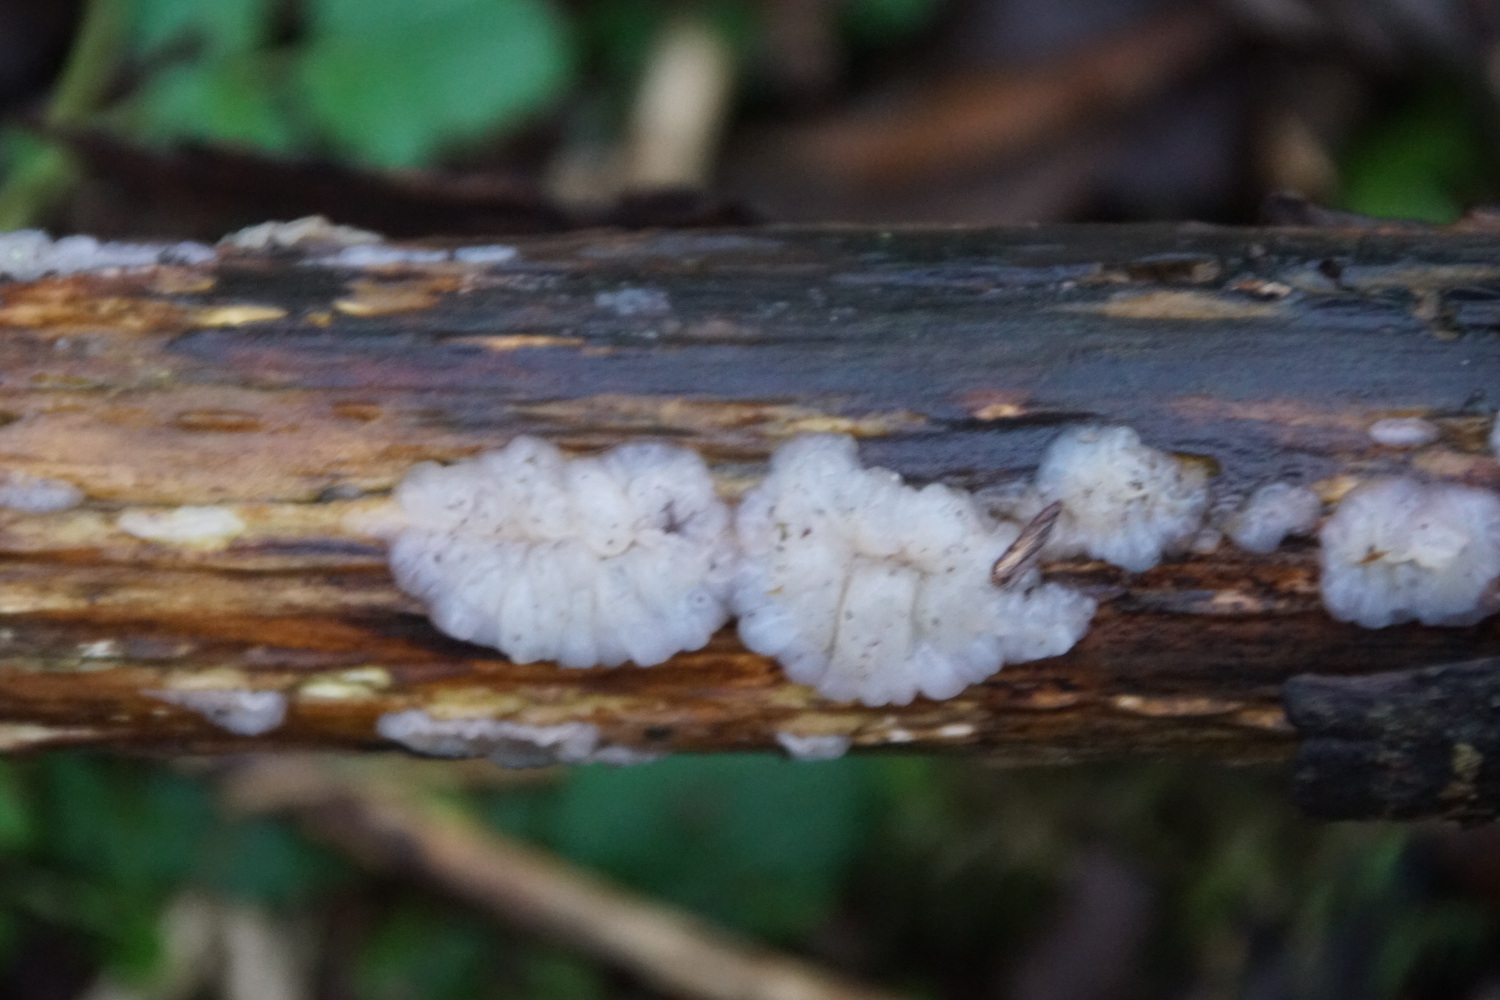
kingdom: Fungi
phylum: Basidiomycota
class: Agaricomycetes
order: Auriculariales
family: Auriculariaceae
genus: Exidia
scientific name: Exidia thuretiana
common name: hvidlig bævretop
